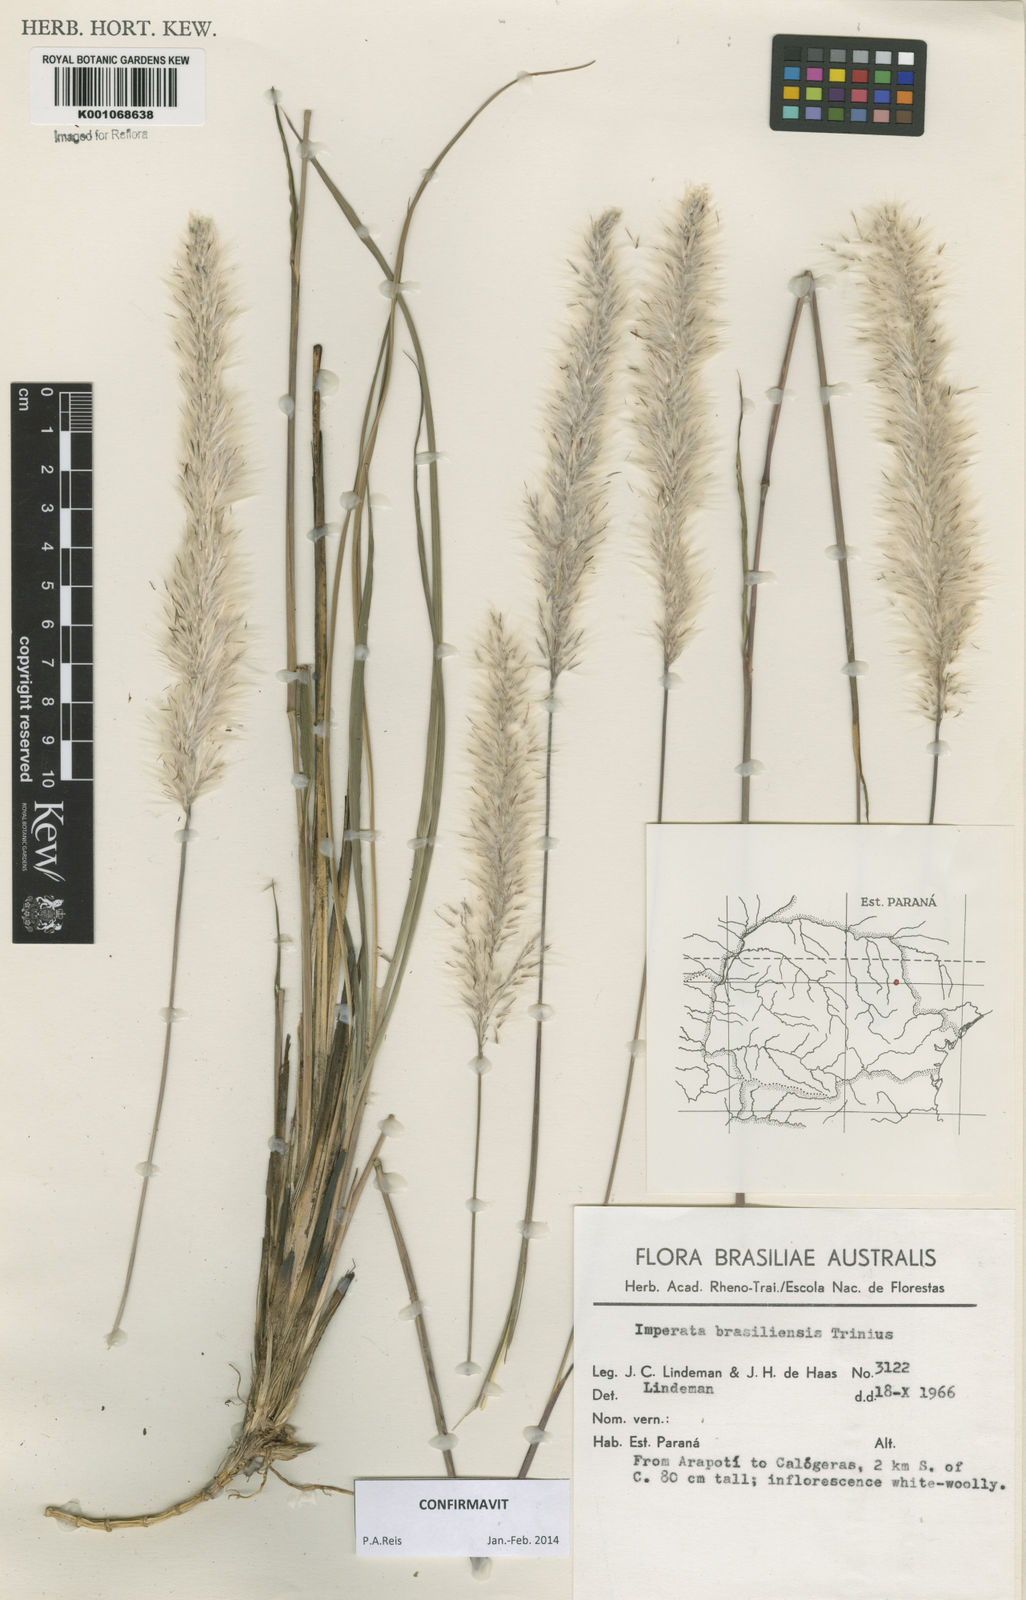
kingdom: Plantae
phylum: Tracheophyta
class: Liliopsida
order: Poales
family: Poaceae
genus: Imperata
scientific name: Imperata brasiliensis
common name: Brazilian satintail
